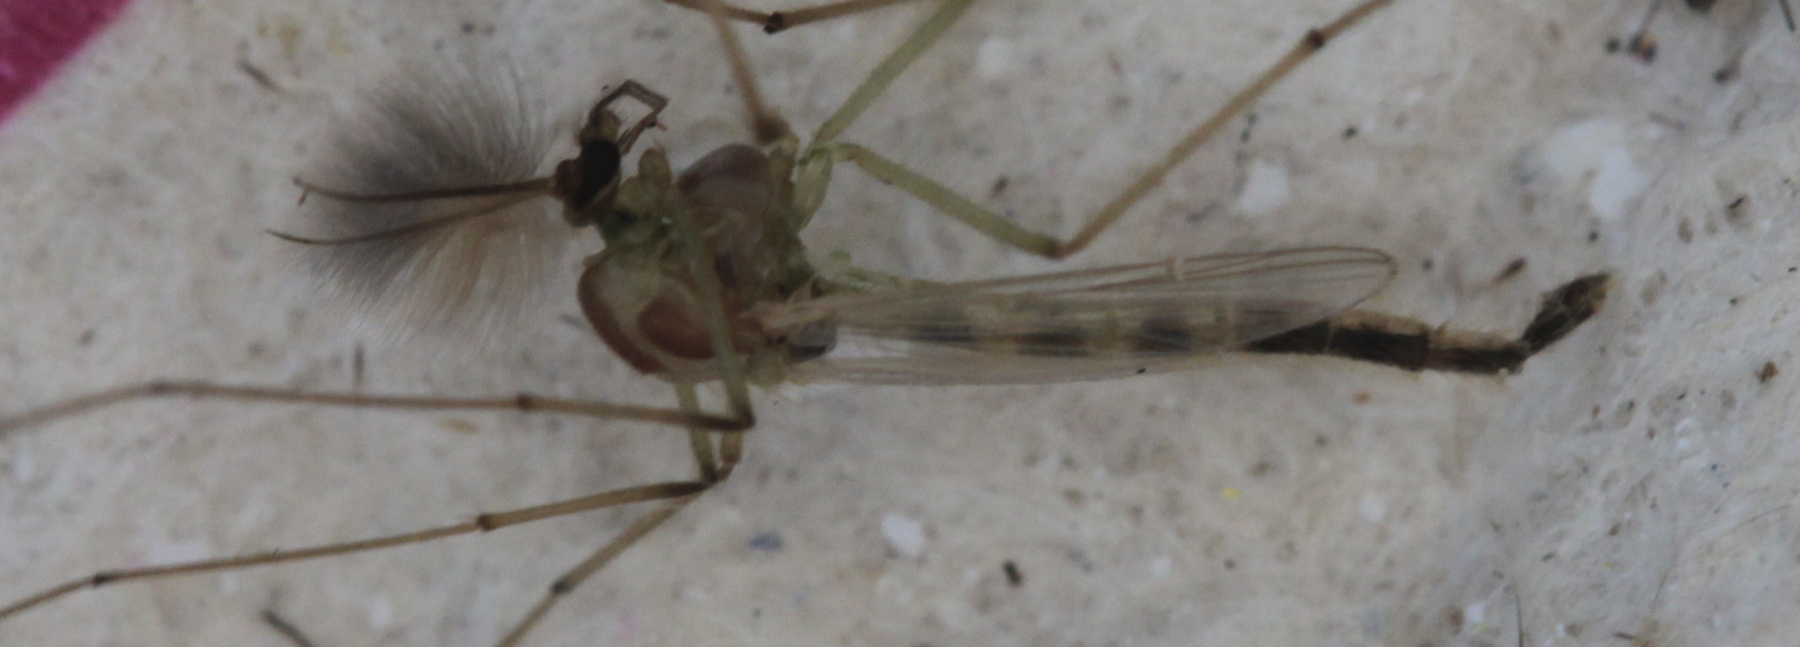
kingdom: Animalia
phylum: Arthropoda
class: Insecta
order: Diptera
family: Chaoboridae
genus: Chaoborus
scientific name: Chaoborus flavicans
